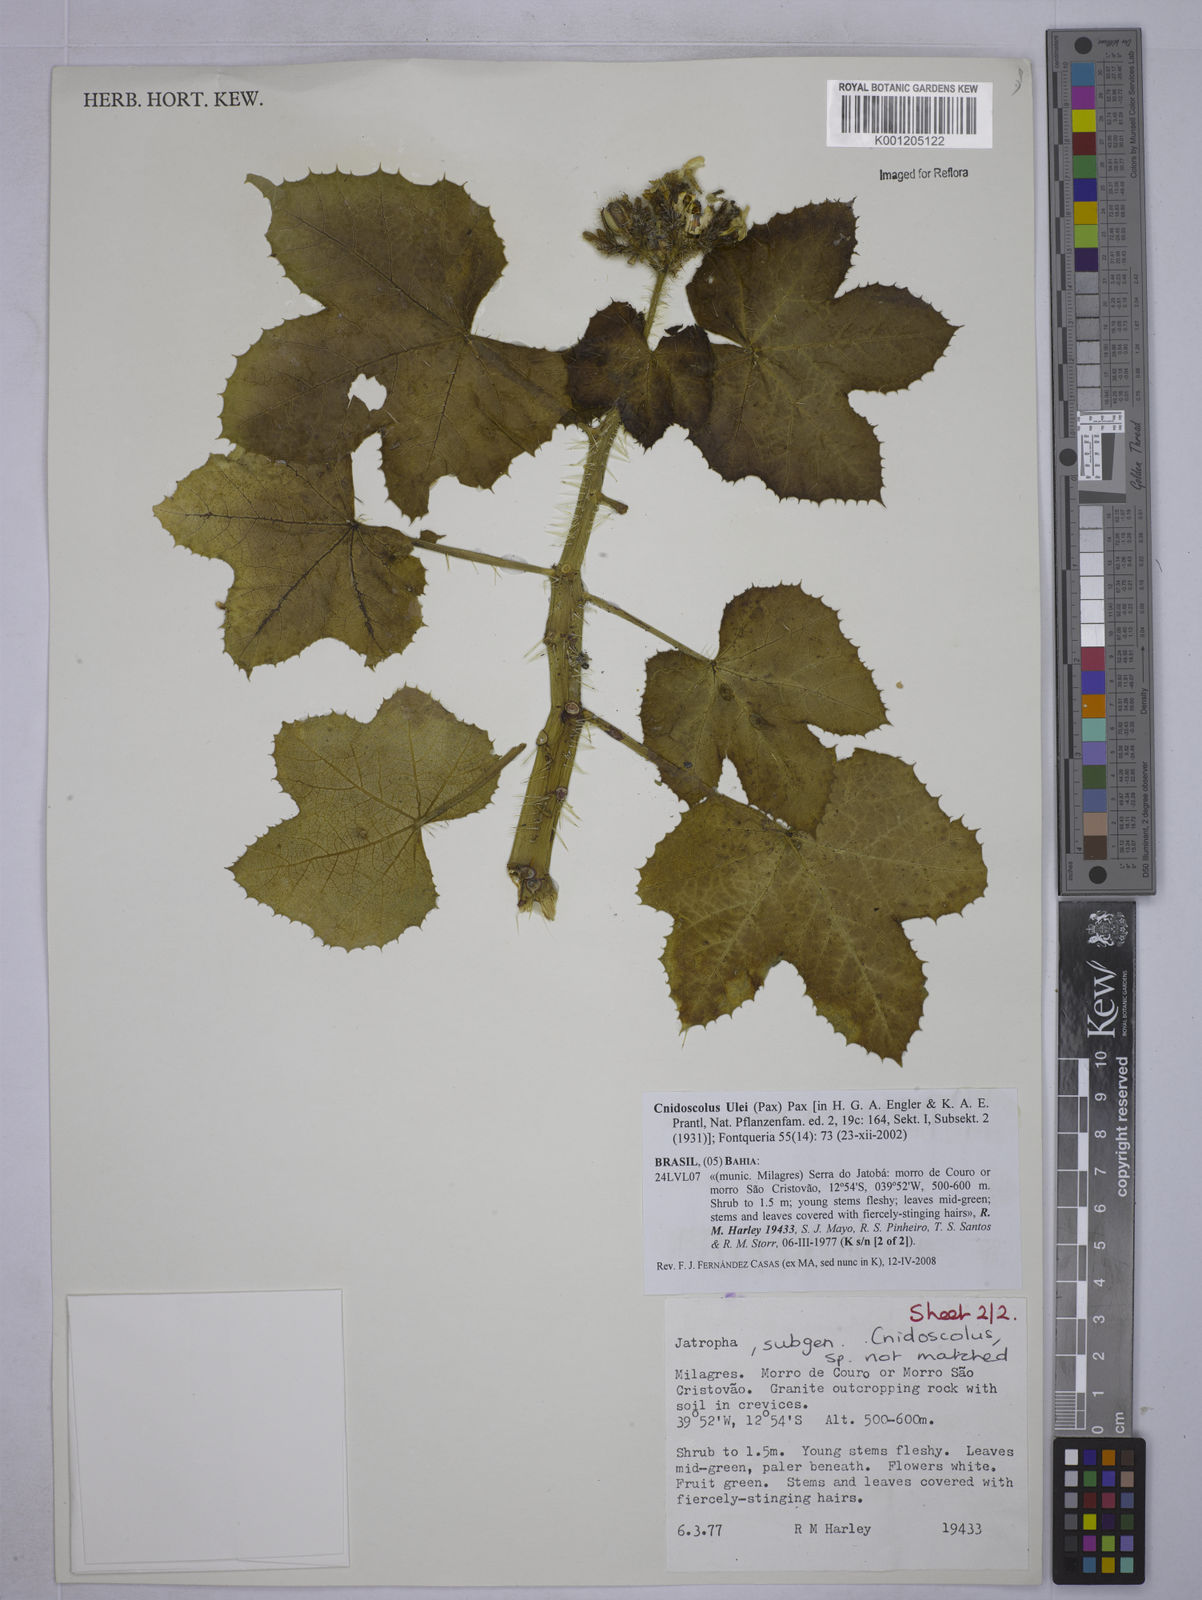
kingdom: Plantae
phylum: Tracheophyta
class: Magnoliopsida
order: Malpighiales
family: Euphorbiaceae
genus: Cnidoscolus
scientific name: Cnidoscolus ulei
